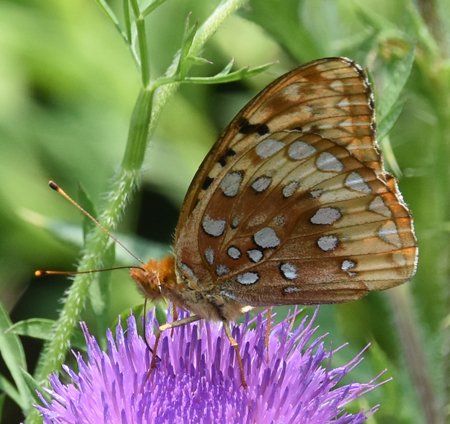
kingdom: Animalia
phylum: Arthropoda
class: Insecta
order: Lepidoptera
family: Nymphalidae
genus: Speyeria
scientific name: Speyeria cybele
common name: Great Spangled Fritillary
